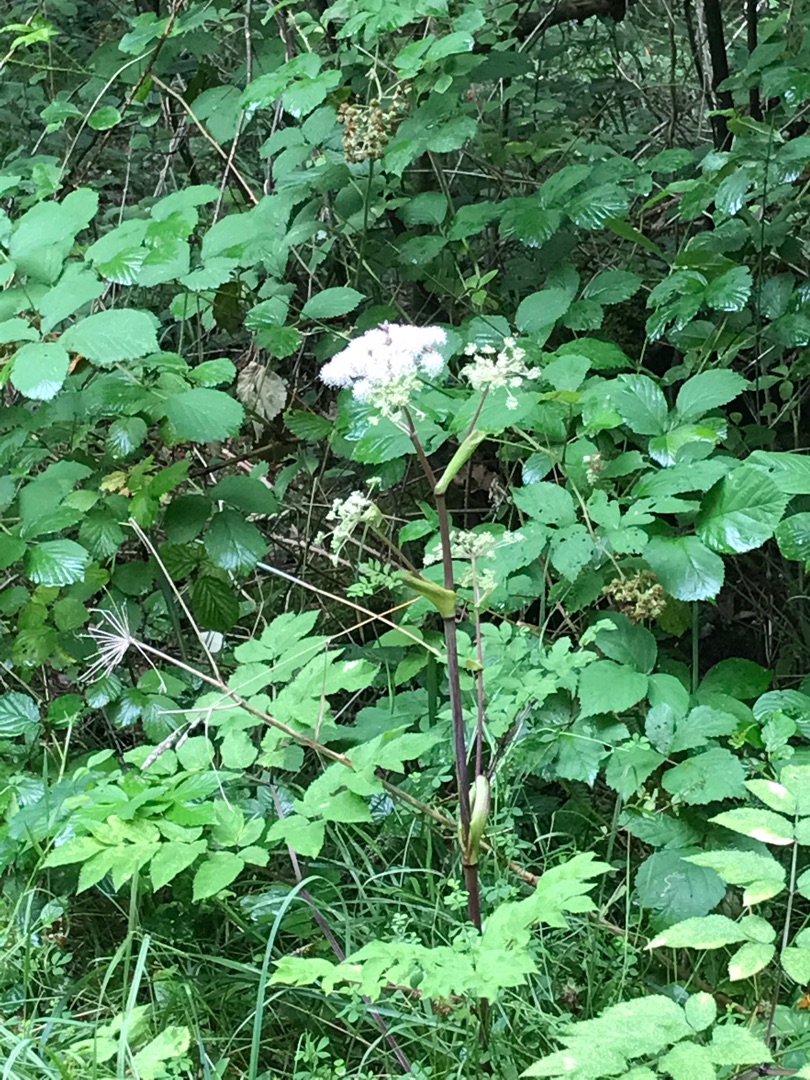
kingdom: Plantae
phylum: Tracheophyta
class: Magnoliopsida
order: Apiales
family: Apiaceae
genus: Angelica
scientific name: Angelica sylvestris
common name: Angelik
